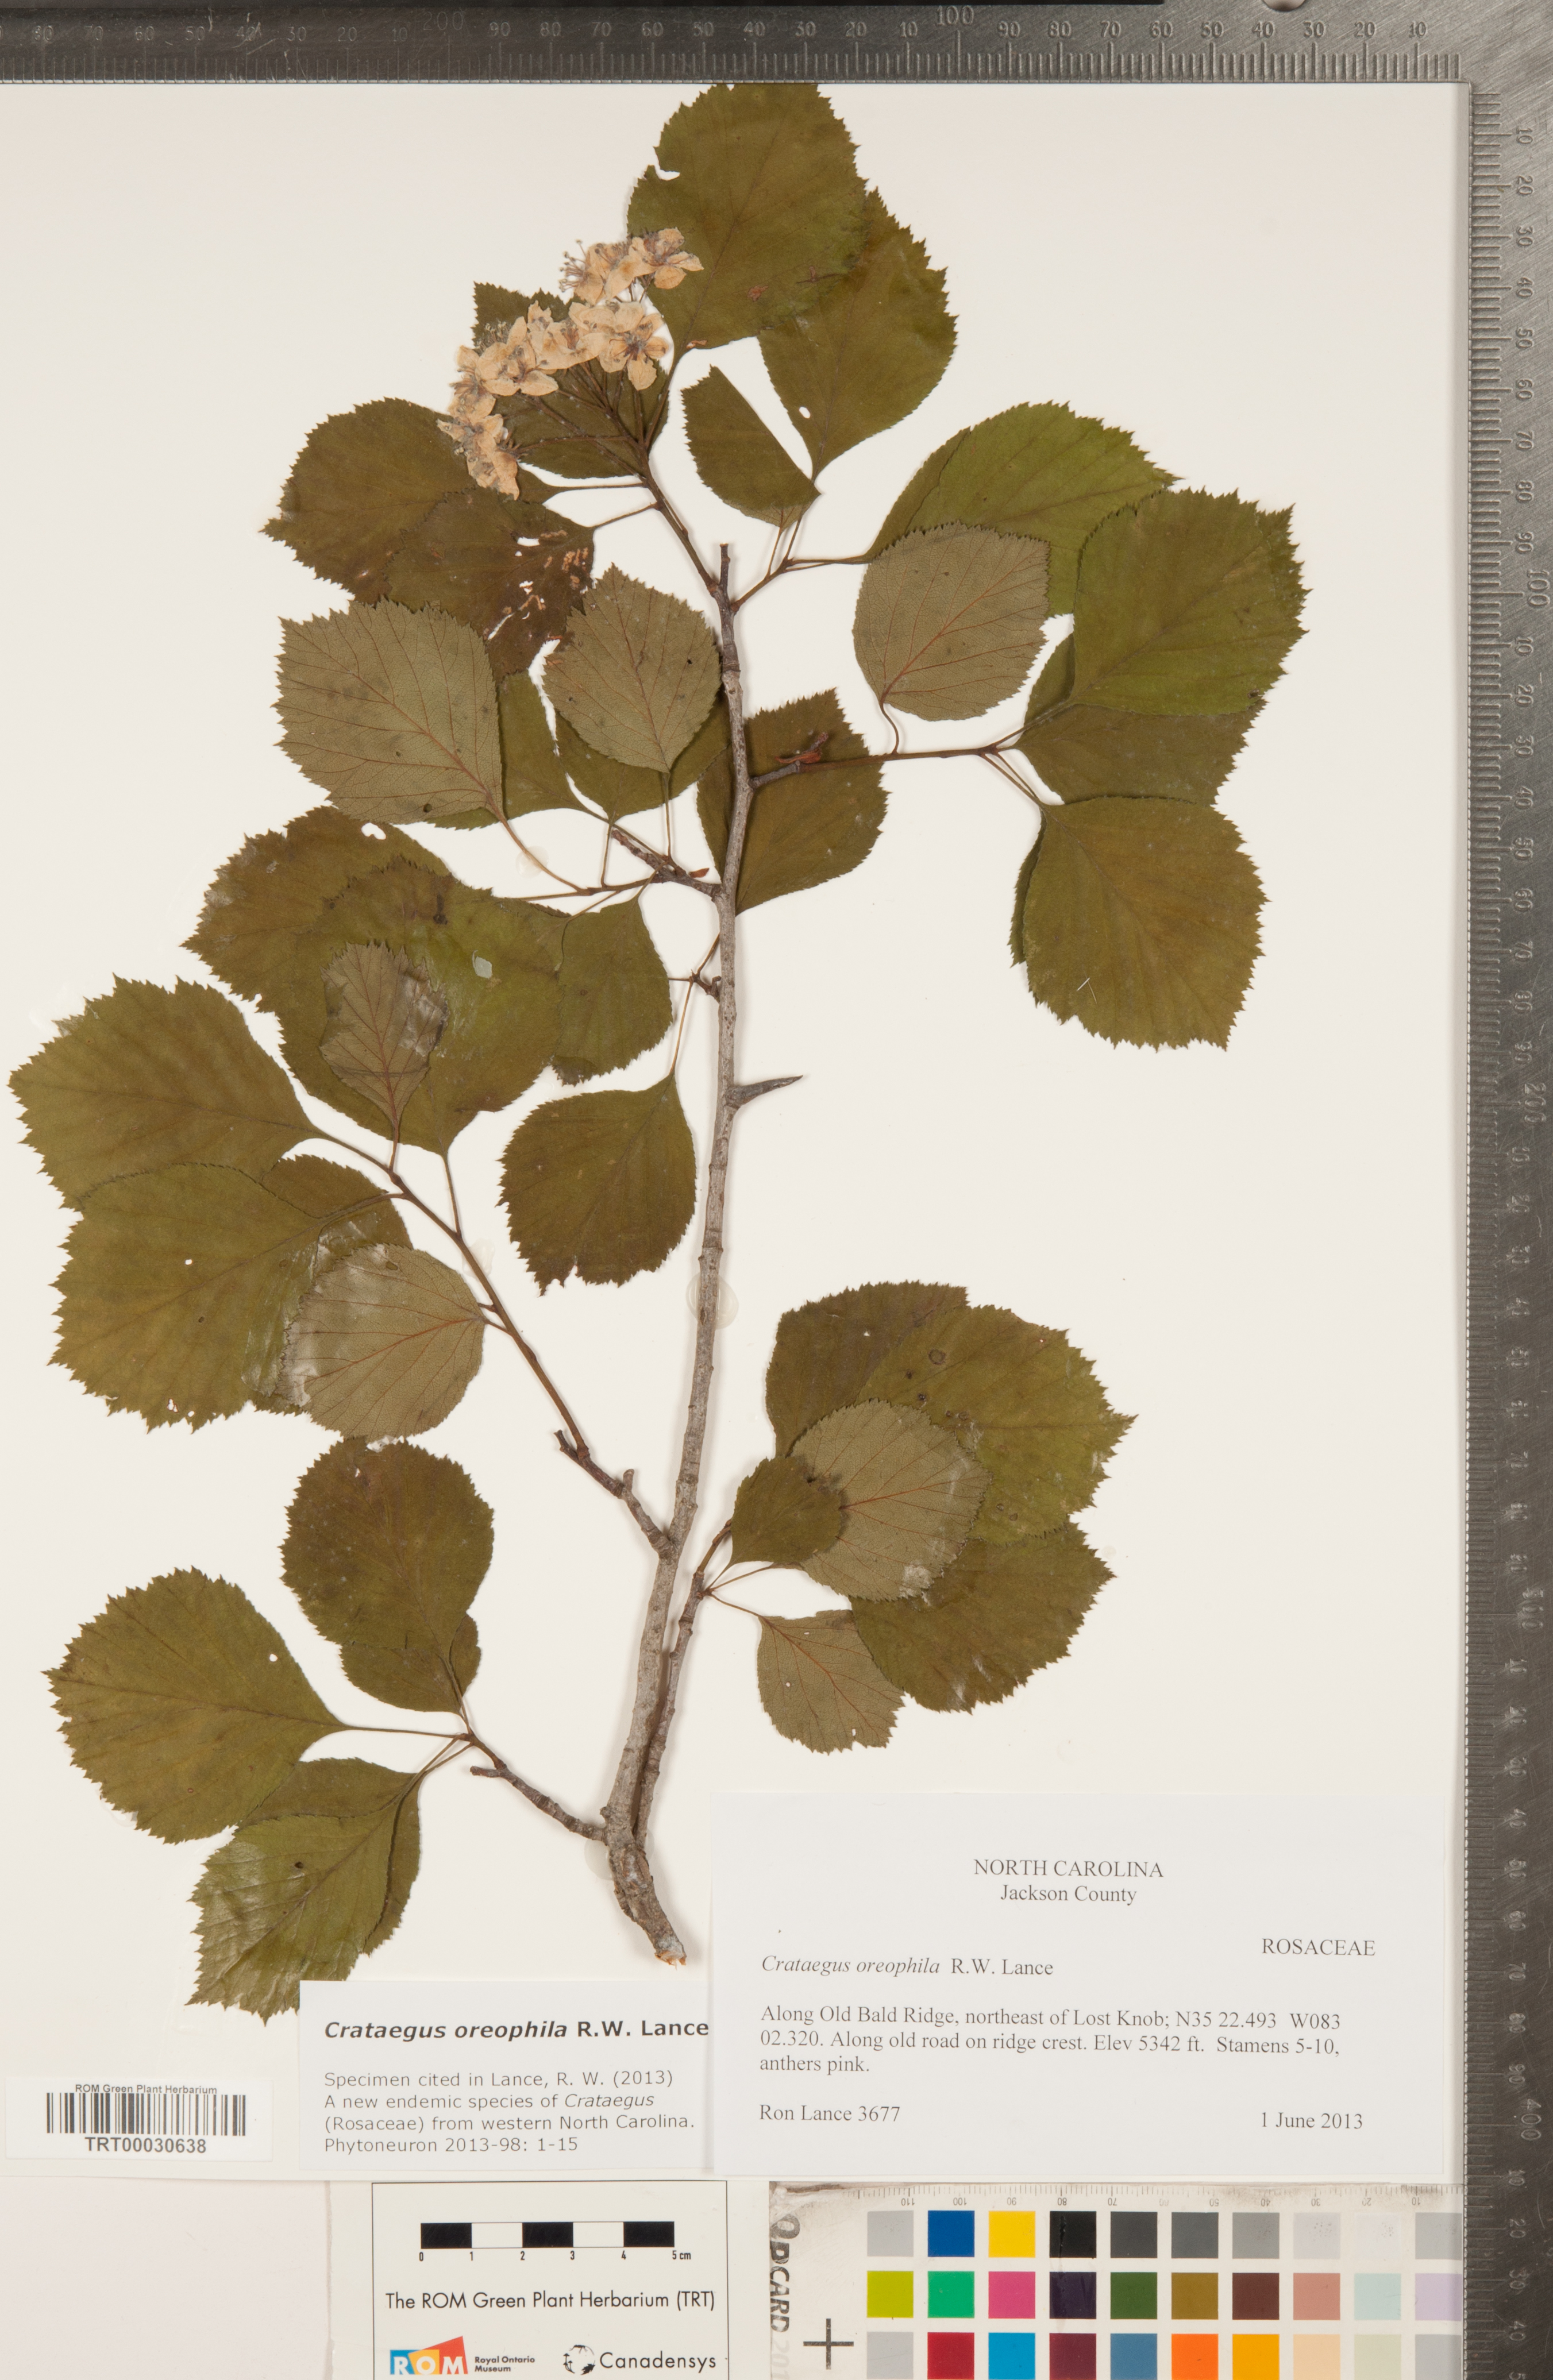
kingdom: Plantae
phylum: Tracheophyta
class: Magnoliopsida
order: Rosales
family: Rosaceae
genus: Crataegus
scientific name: Crataegus oreophila
